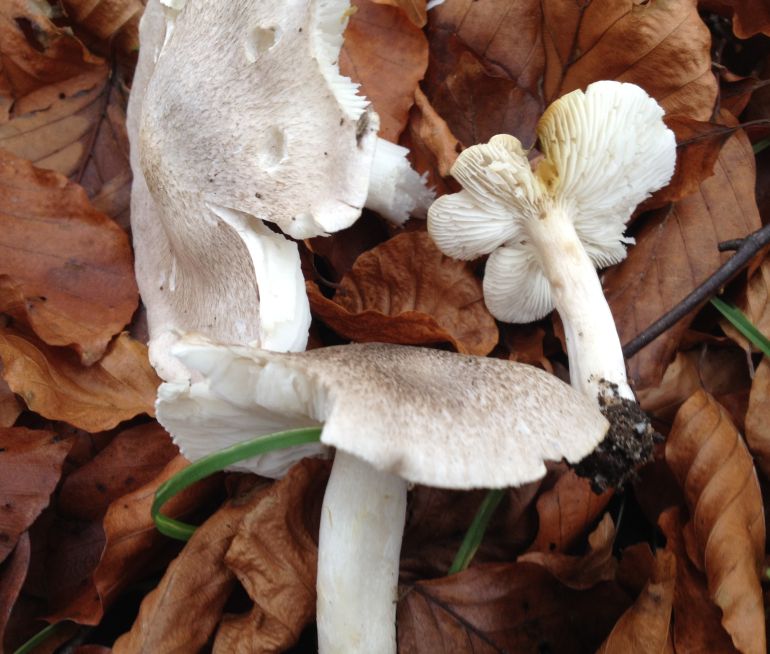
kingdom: Fungi
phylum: Basidiomycota
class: Agaricomycetes
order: Agaricales
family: Tricholomataceae
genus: Tricholoma
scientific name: Tricholoma scalpturatum
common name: gulplettet ridderhat
